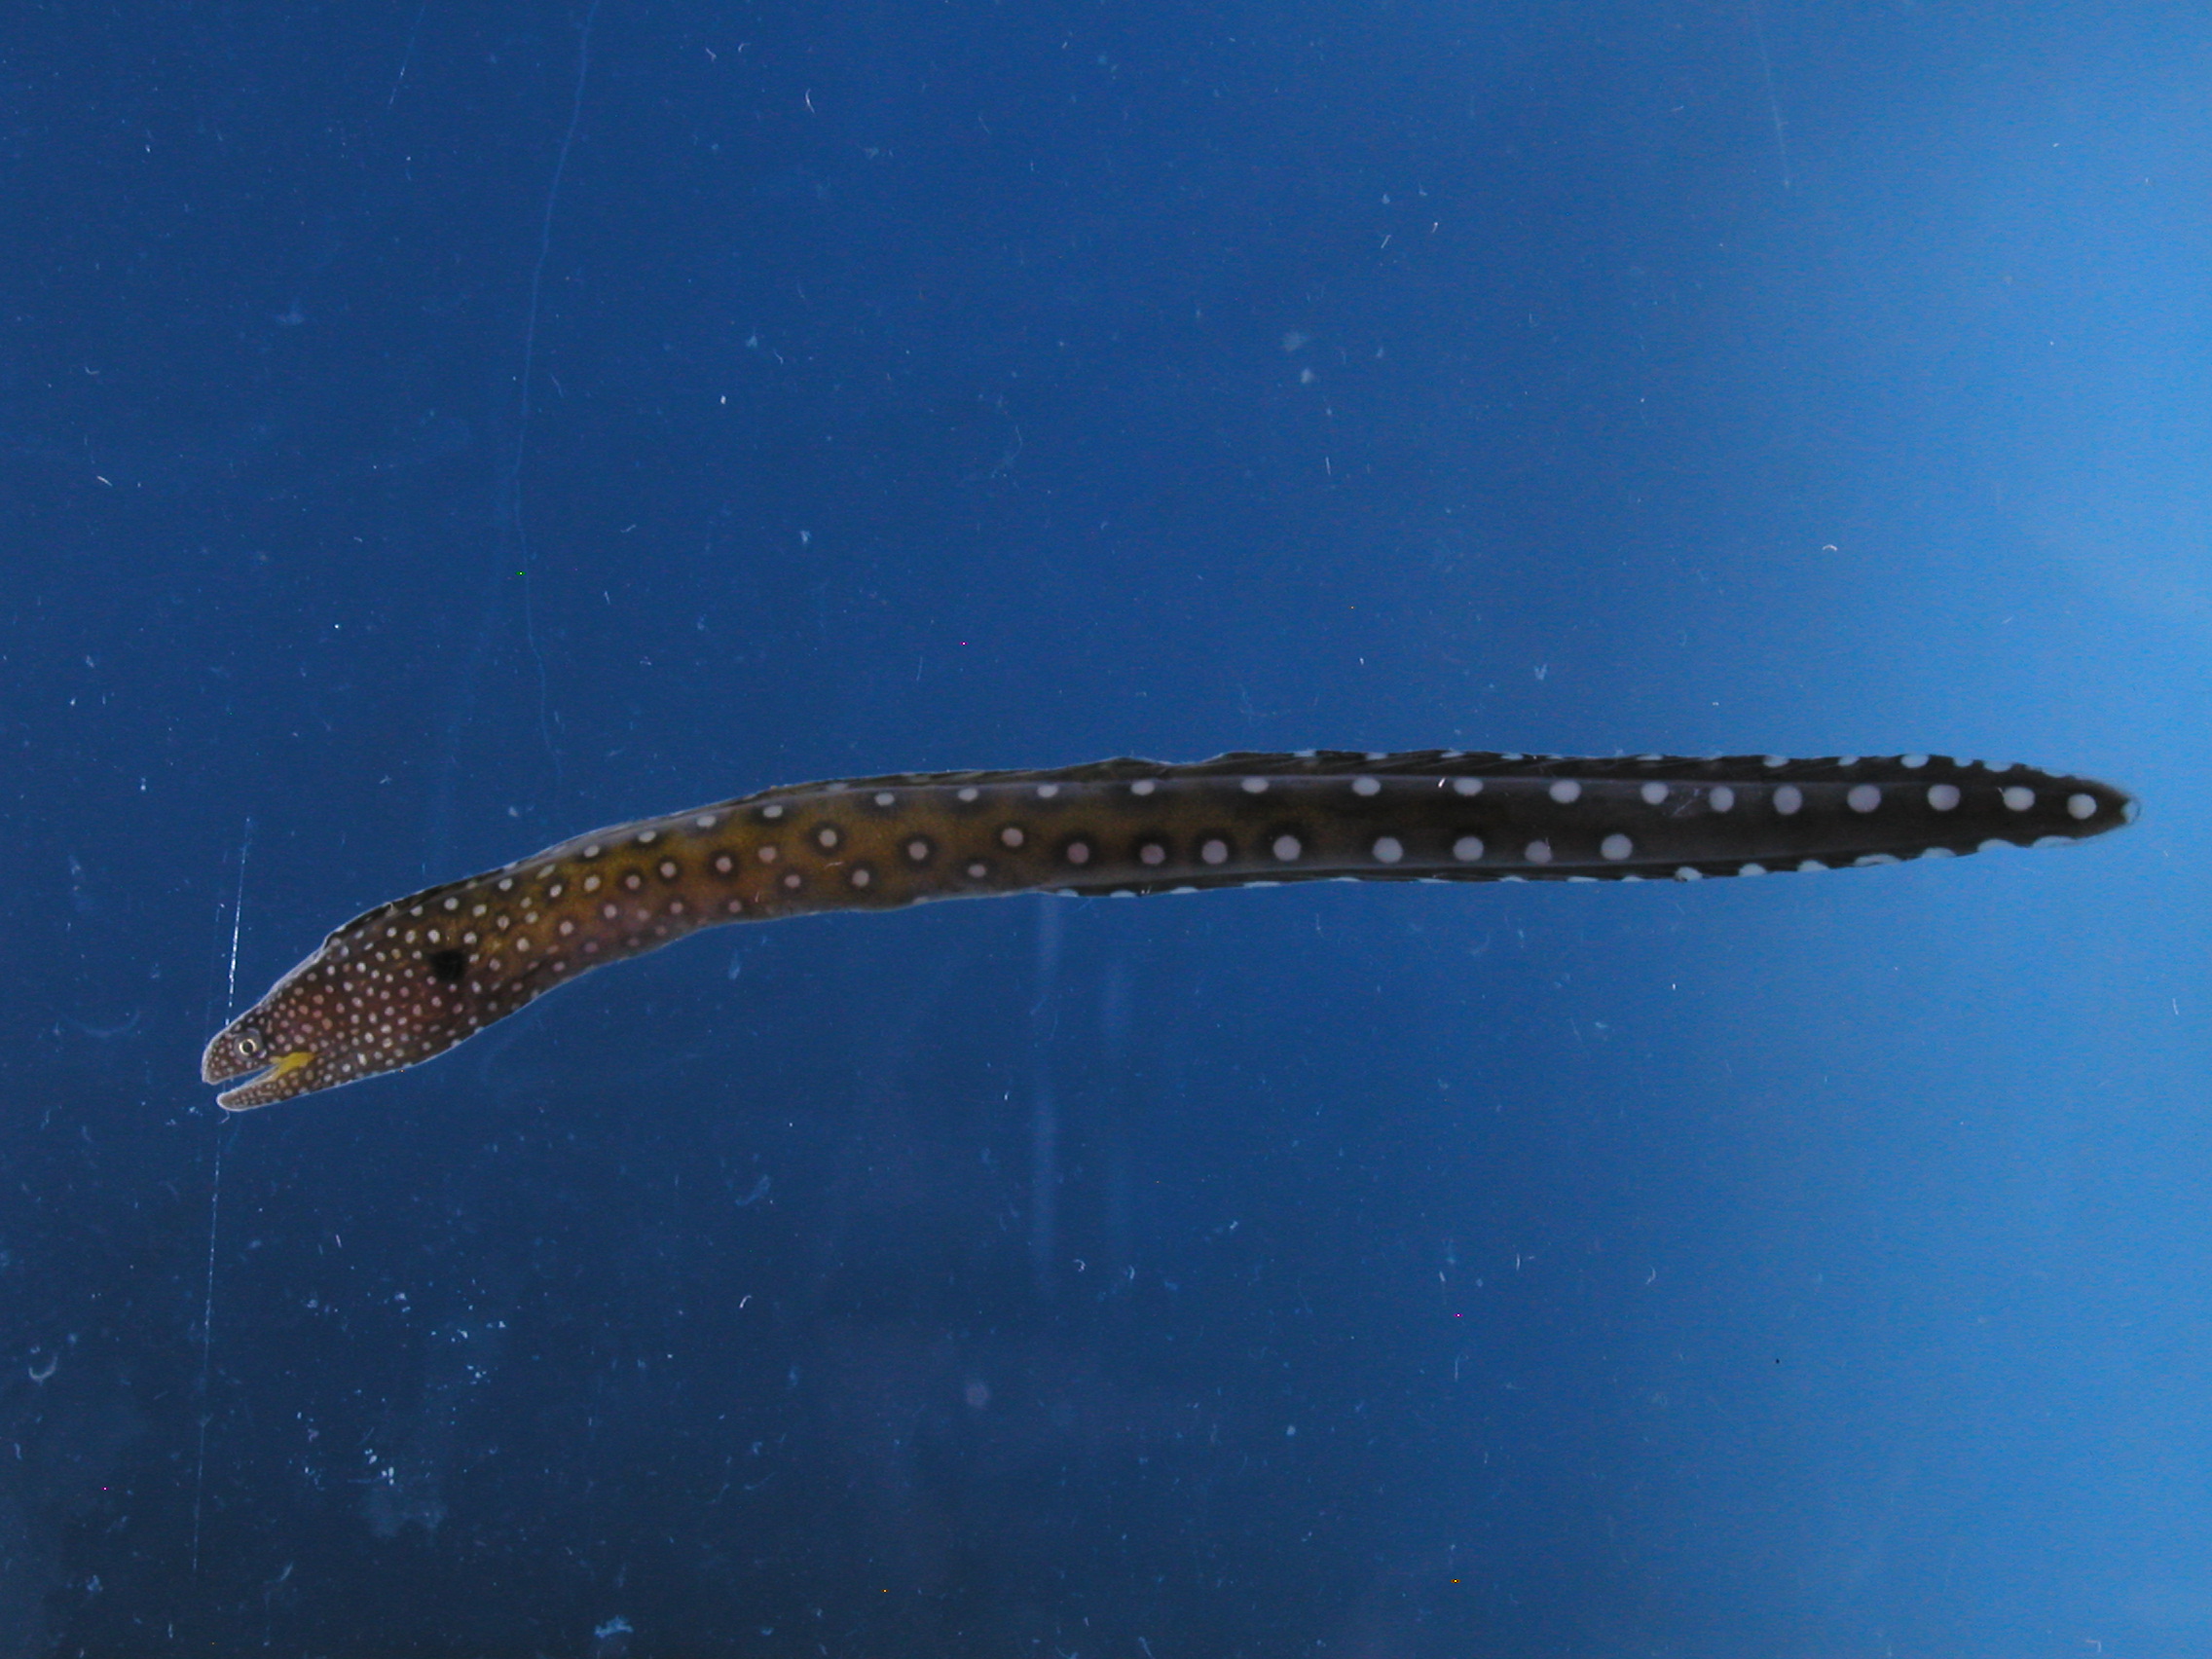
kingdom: Animalia
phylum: Chordata
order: Anguilliformes
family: Muraenidae
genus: Gymnothorax
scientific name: Gymnothorax nudivomer
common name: Yellowmouth moray
